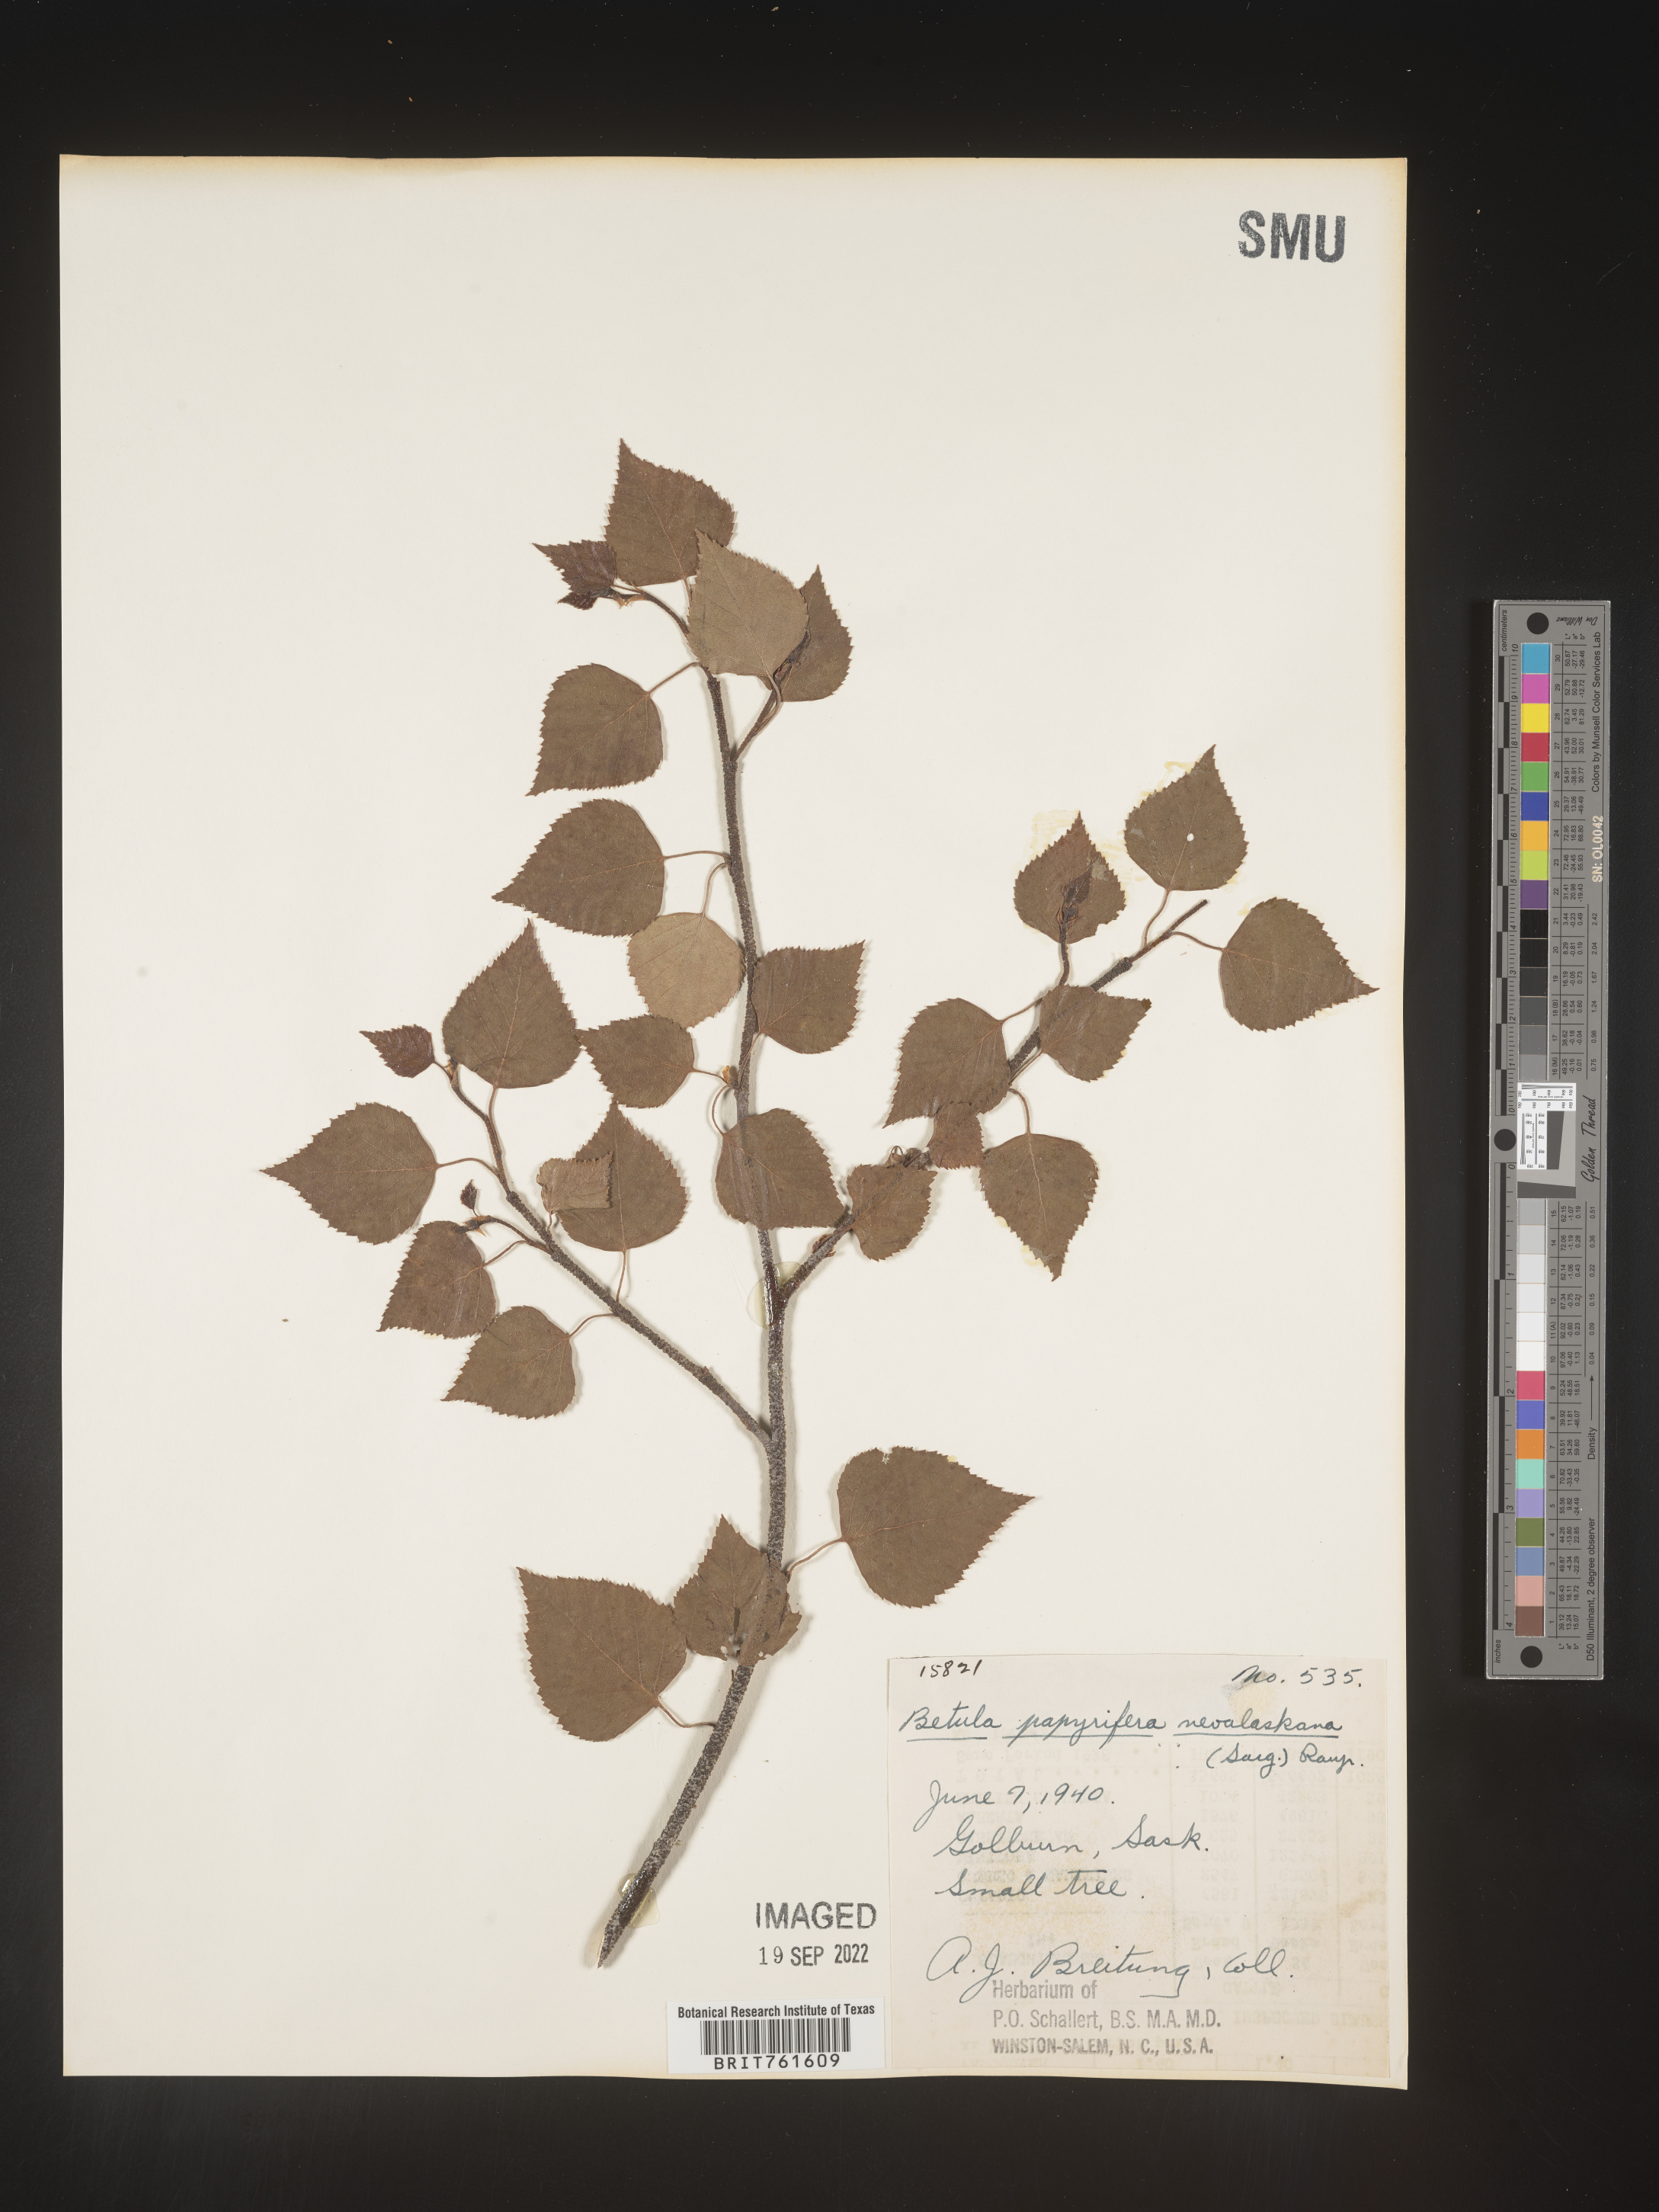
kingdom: Plantae
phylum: Tracheophyta
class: Magnoliopsida
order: Fagales
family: Betulaceae
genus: Betula
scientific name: Betula pendula
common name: Silver birch
